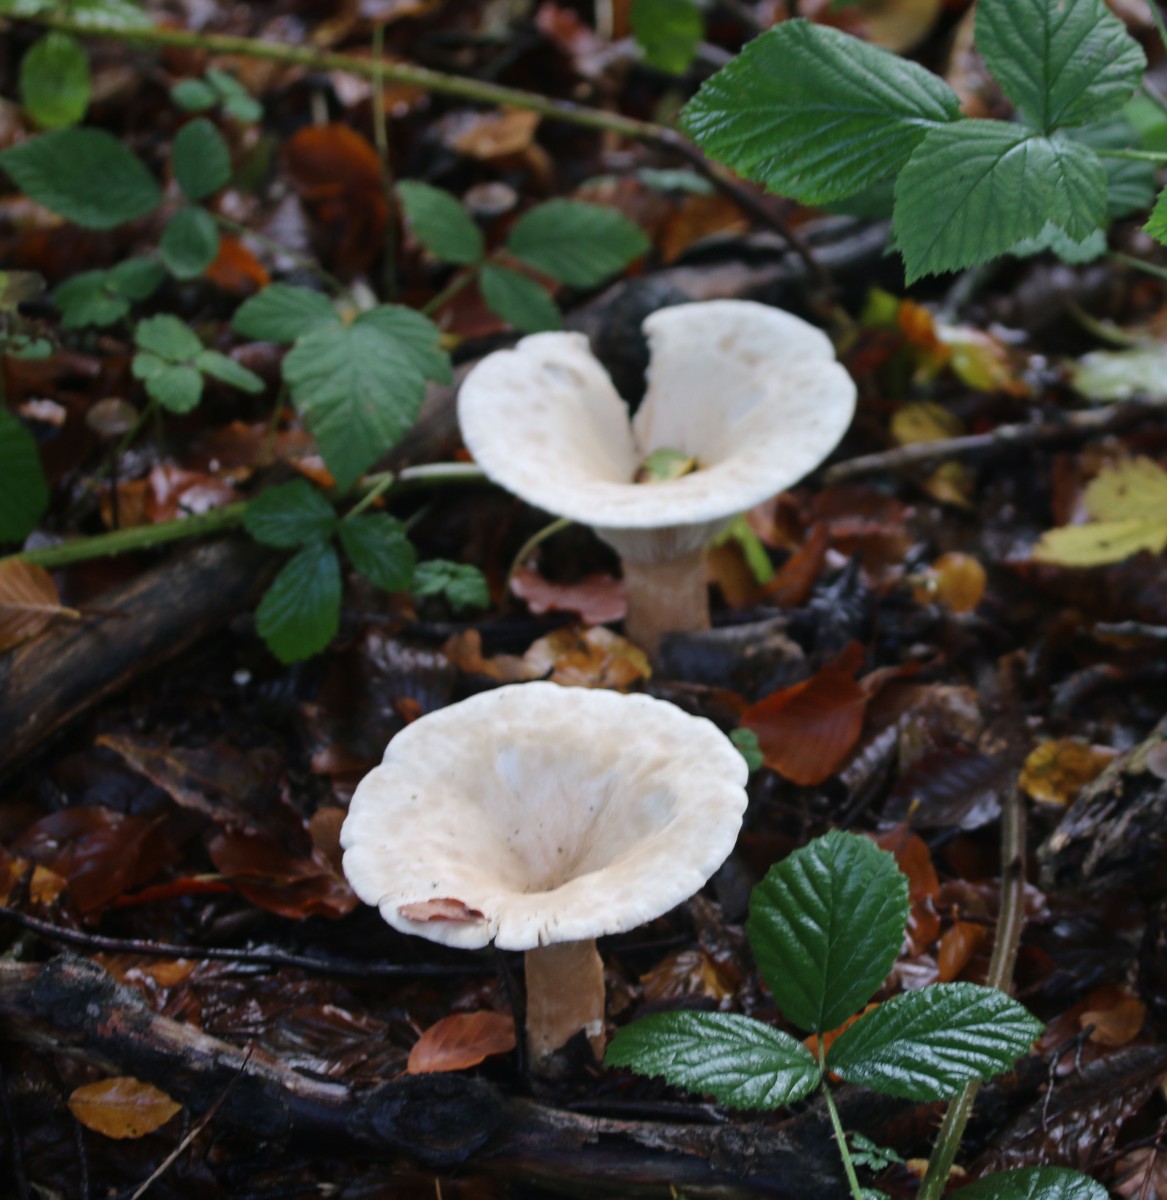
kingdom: Fungi
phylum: Basidiomycota
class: Agaricomycetes
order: Agaricales
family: Tricholomataceae
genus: Infundibulicybe
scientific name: Infundibulicybe geotropa
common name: stor tragthat
